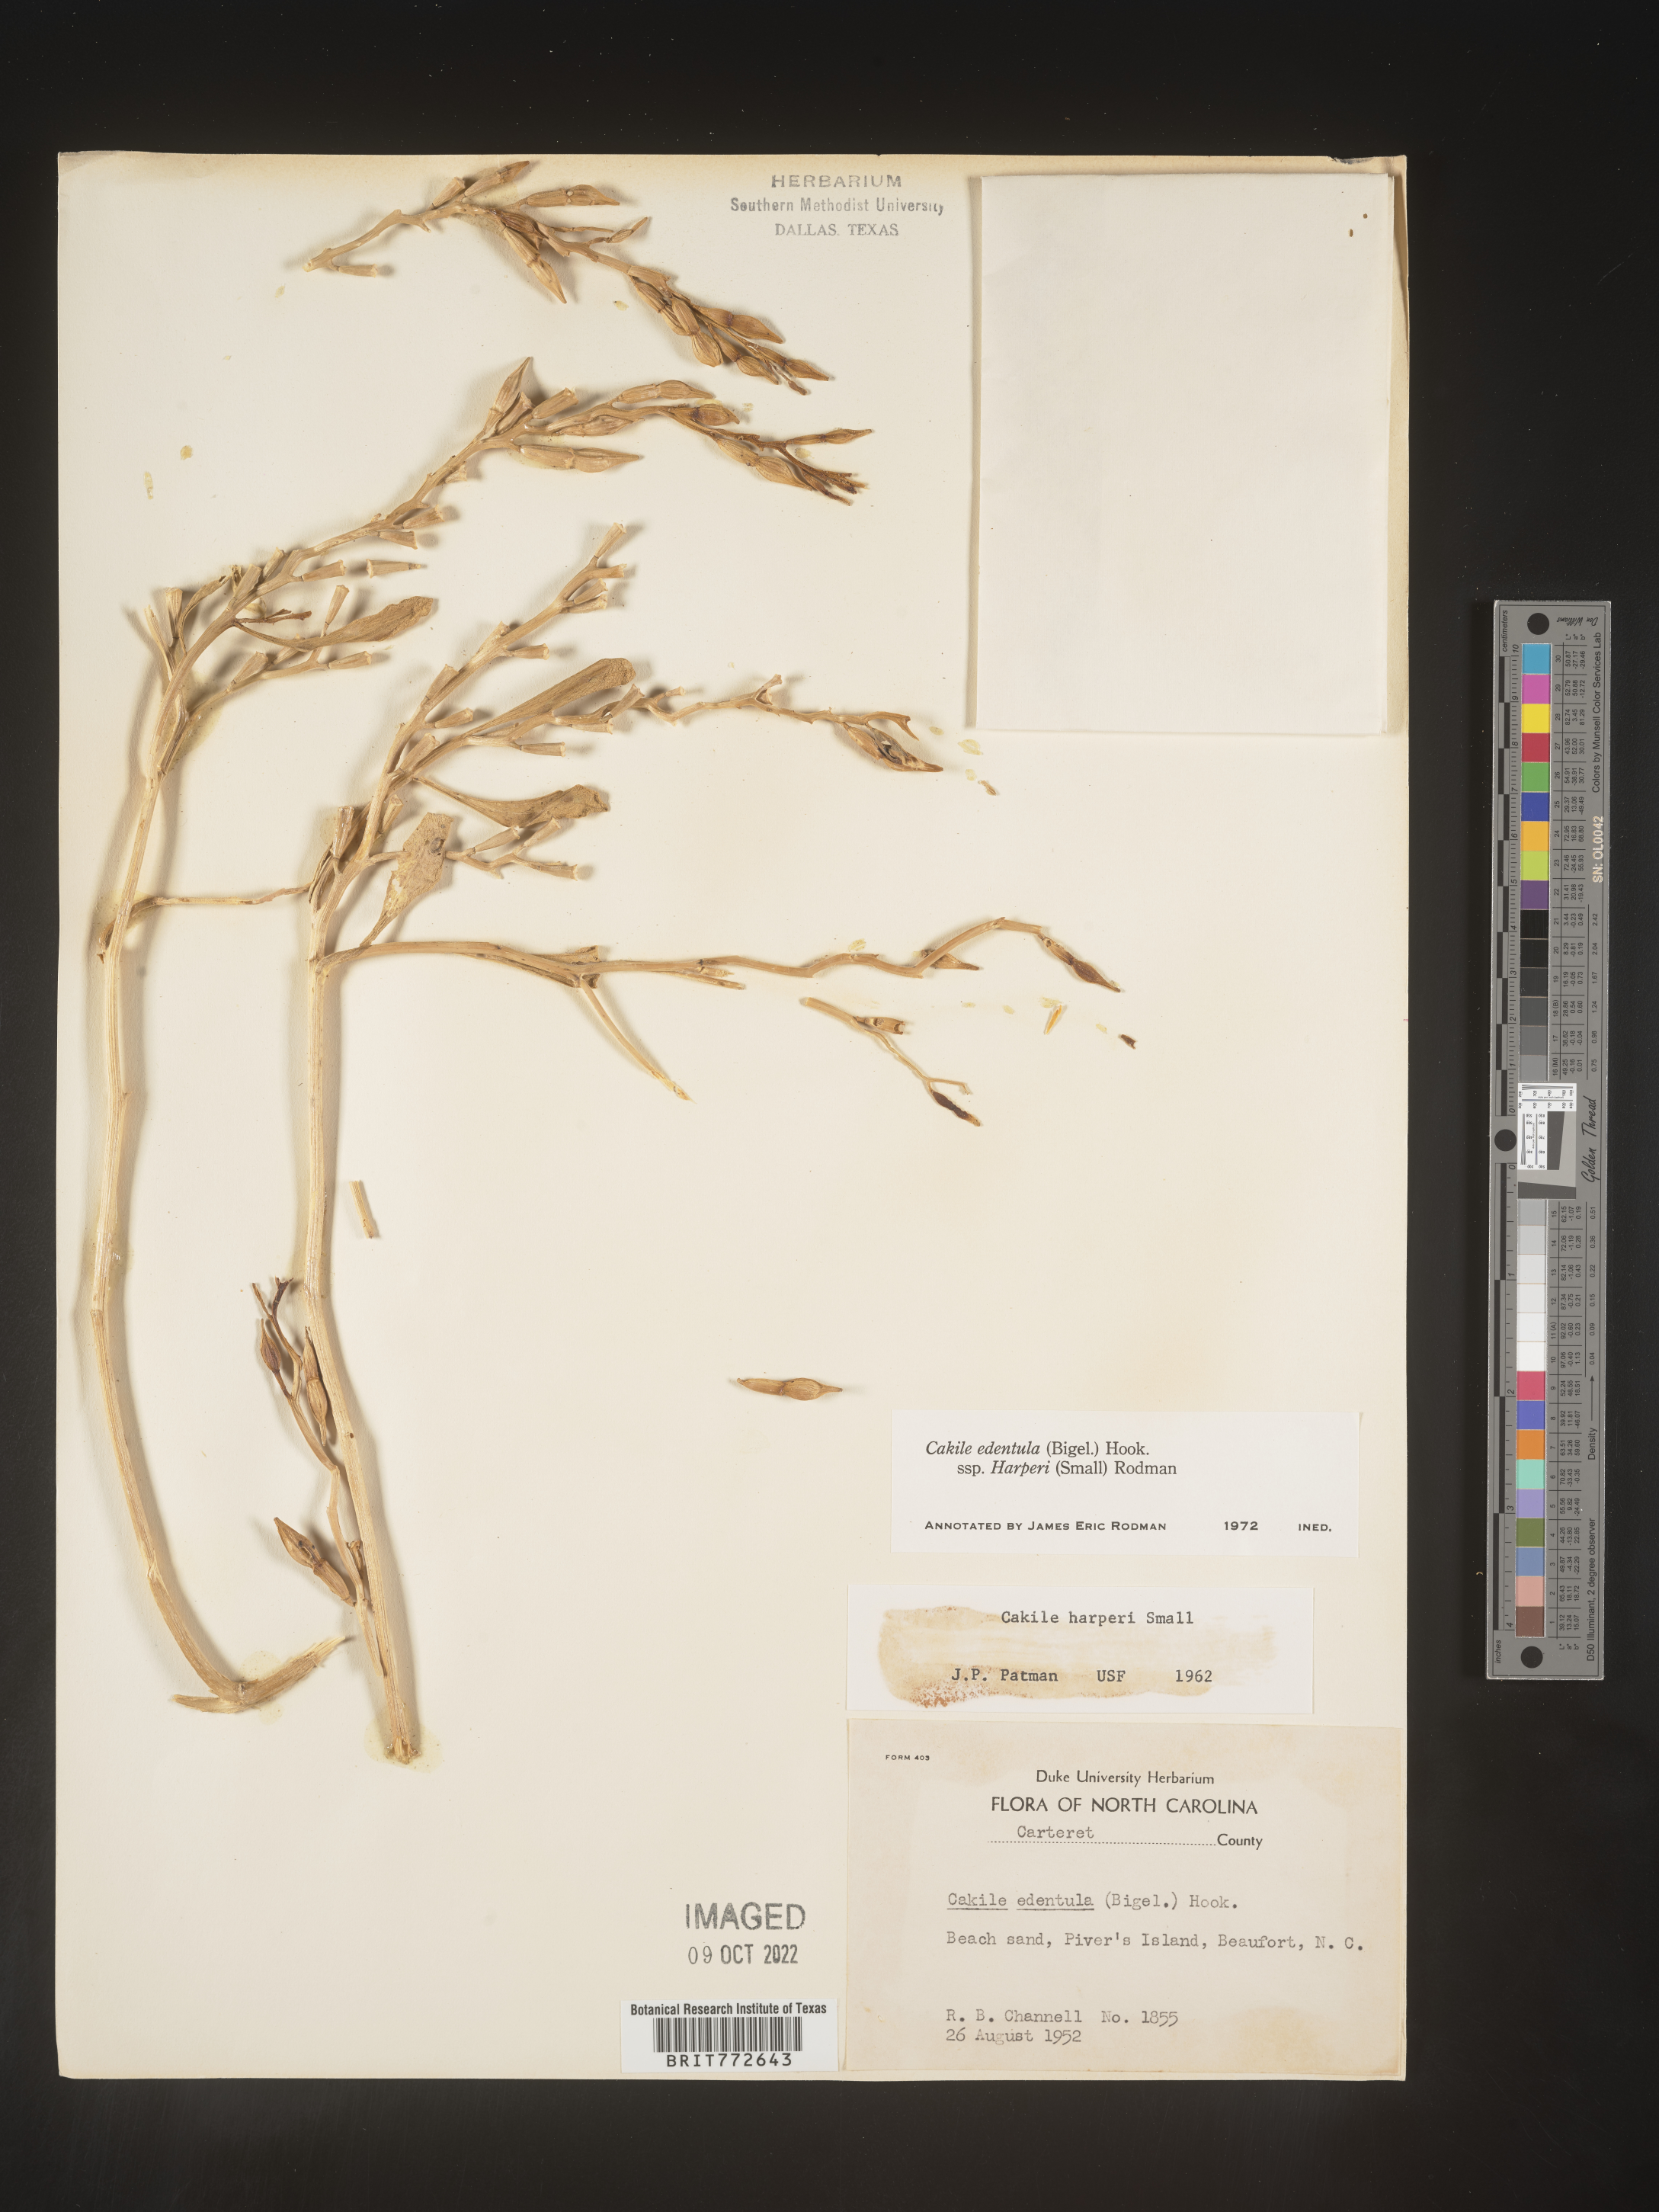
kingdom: Plantae
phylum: Tracheophyta
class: Magnoliopsida
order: Brassicales
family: Brassicaceae
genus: Cakile
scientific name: Cakile edentula
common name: American sea rocket
